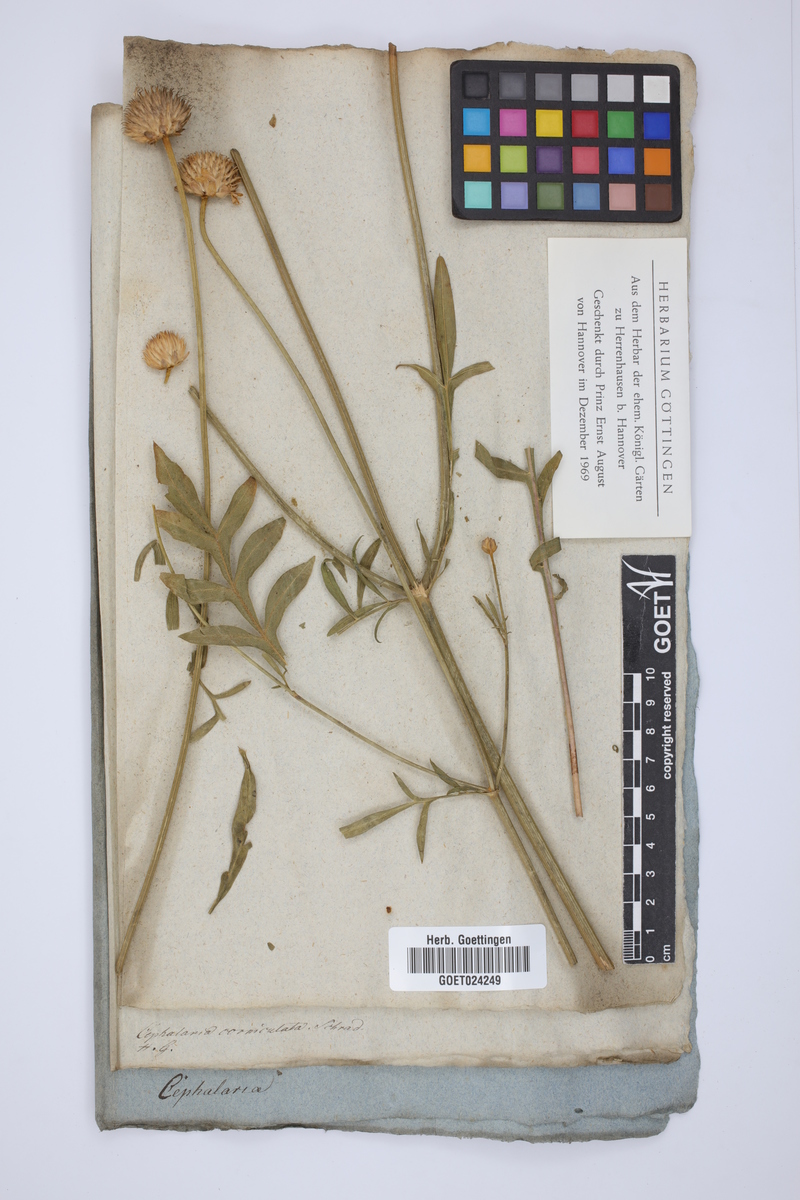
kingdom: Plantae
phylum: Tracheophyta
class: Magnoliopsida
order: Dipsacales
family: Caprifoliaceae
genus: Cephalaria
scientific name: Cephalaria uralensis
